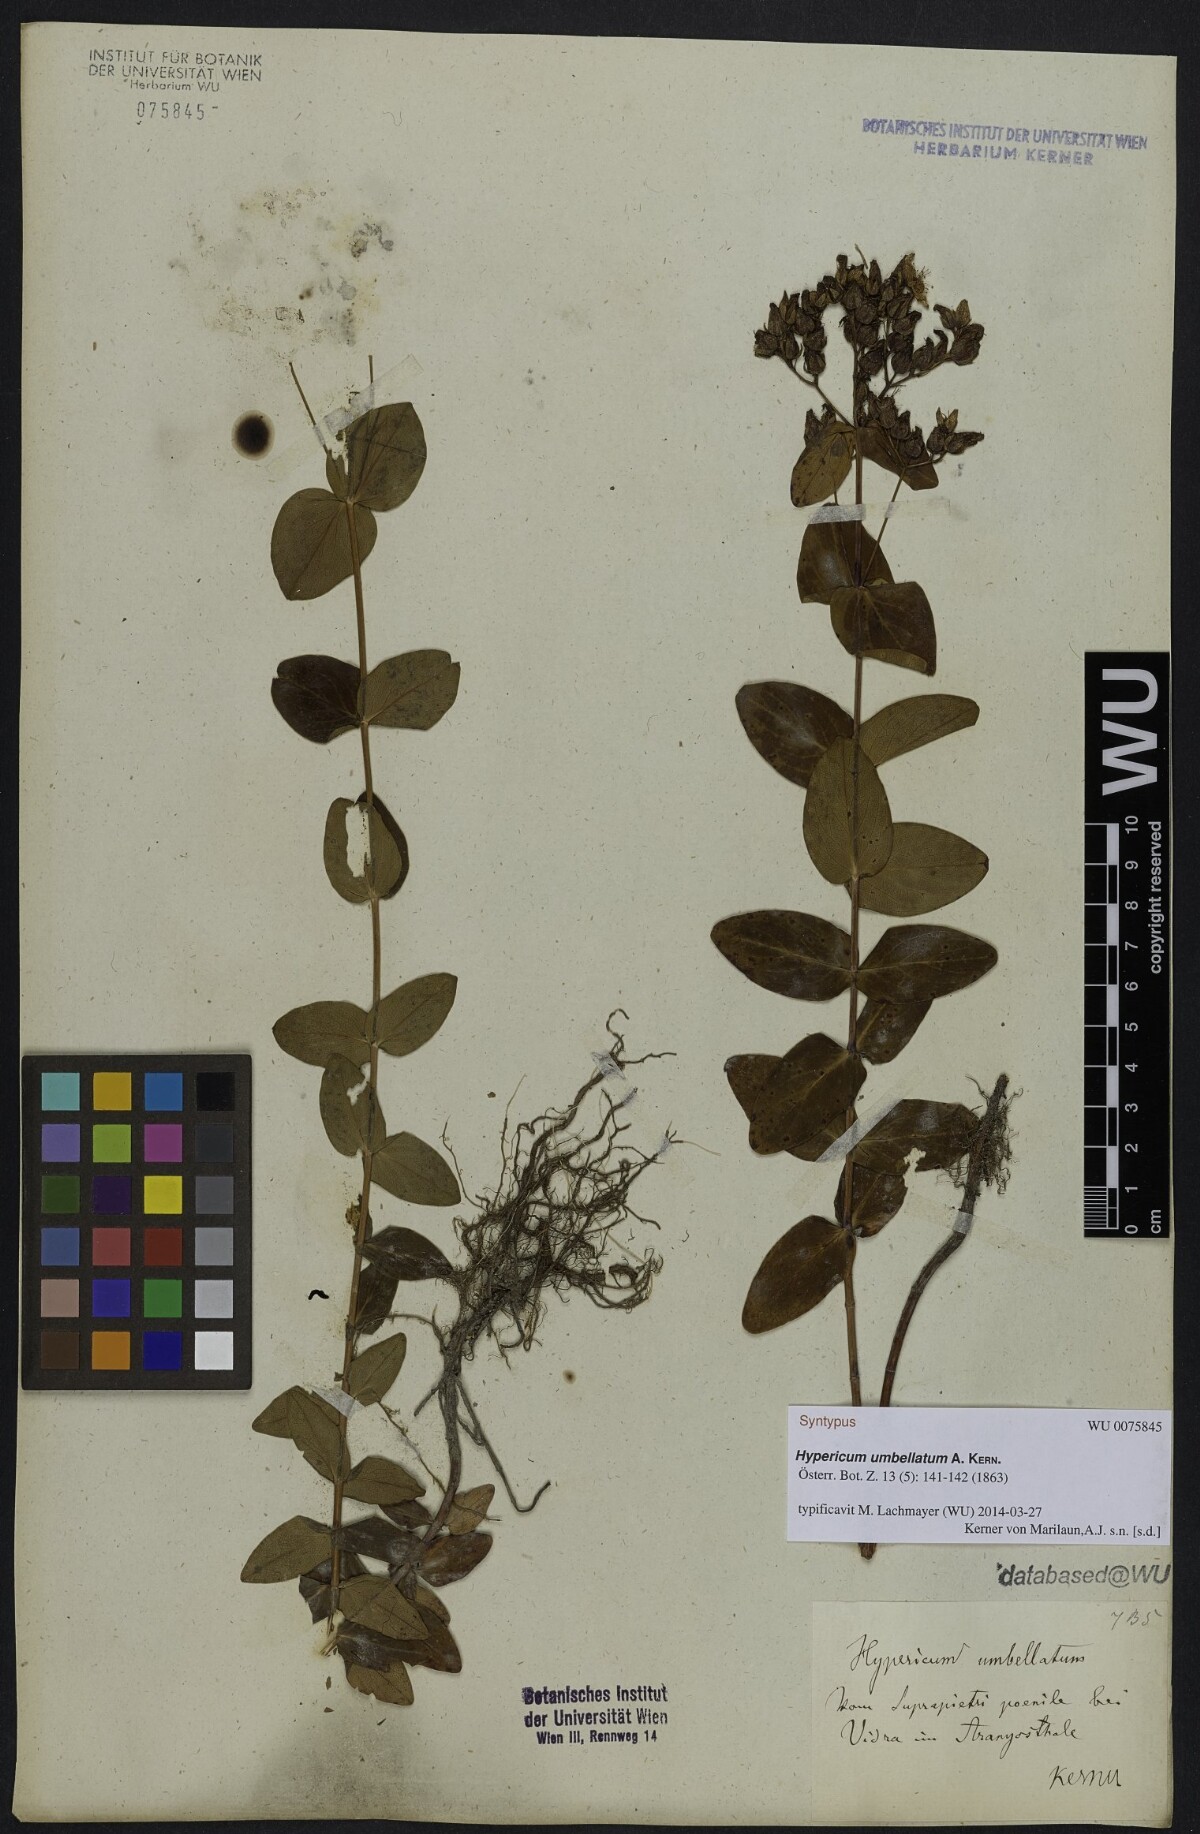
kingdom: Plantae
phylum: Tracheophyta
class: Magnoliopsida
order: Malpighiales
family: Hypericaceae
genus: Hypericum
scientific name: Hypericum umbellatum
